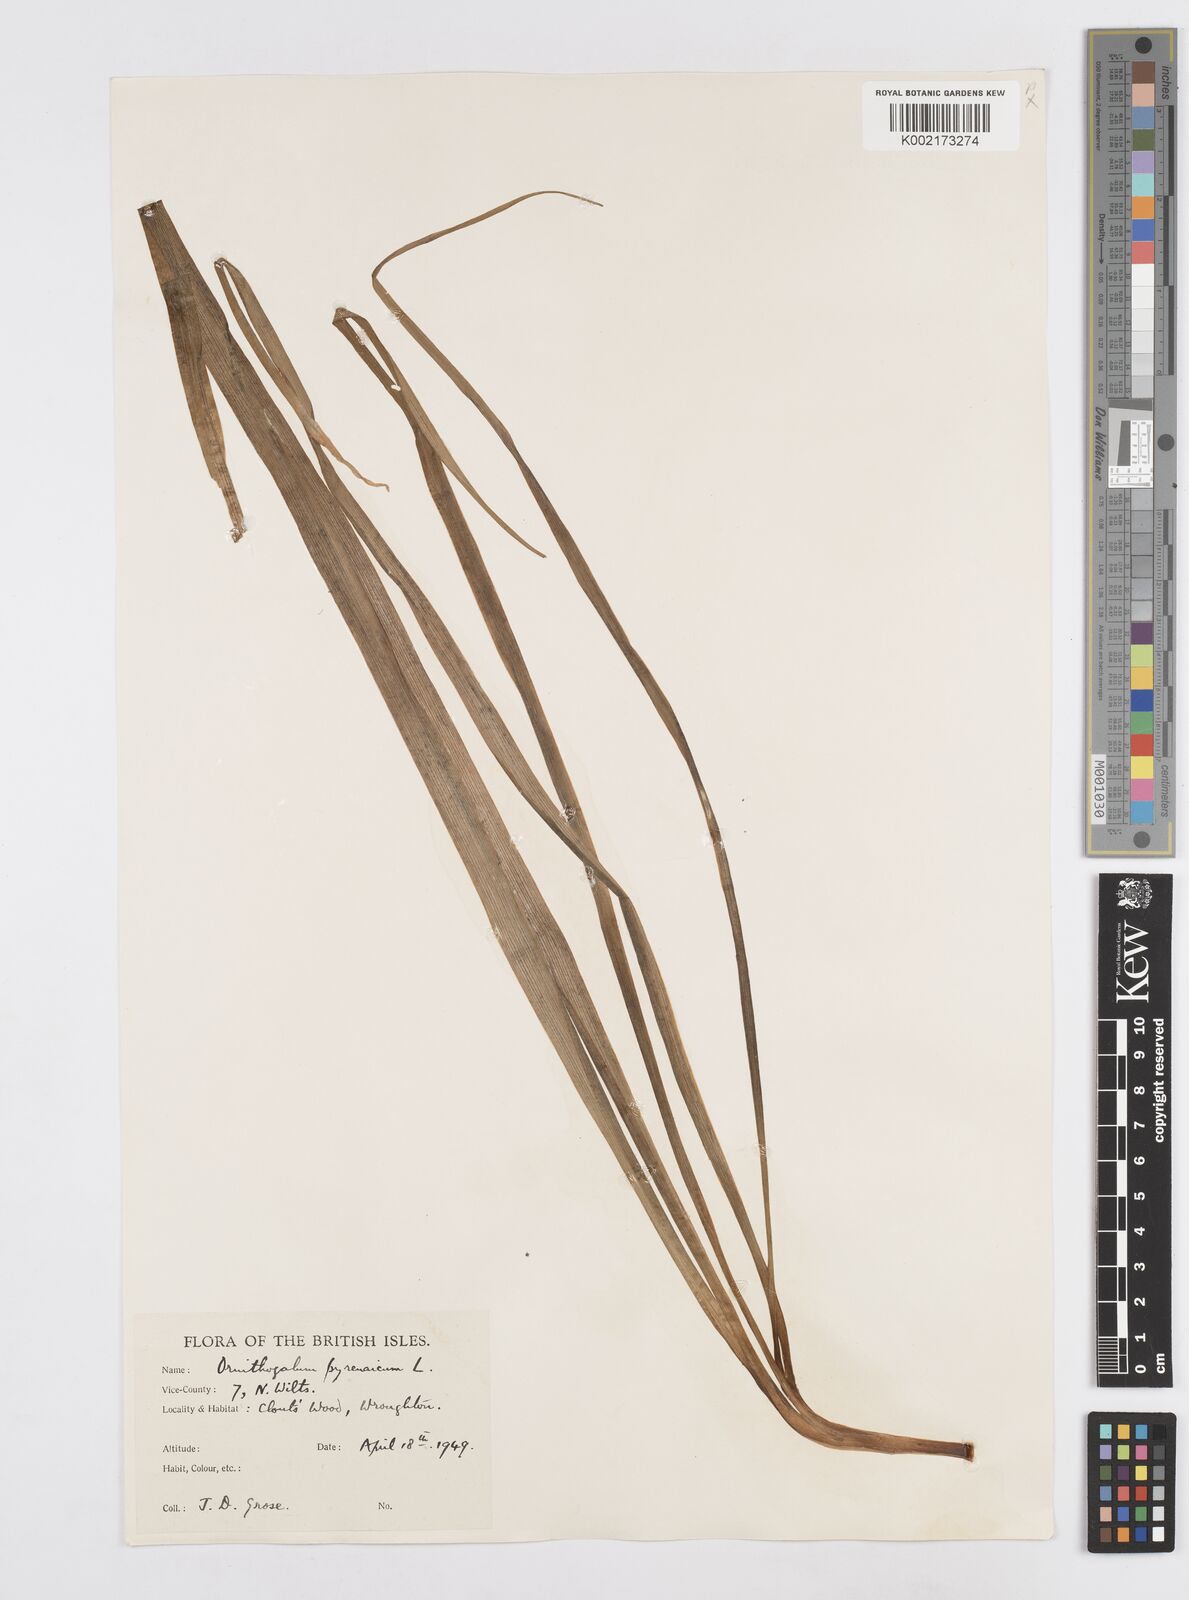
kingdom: Plantae
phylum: Tracheophyta
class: Liliopsida
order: Asparagales
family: Asparagaceae
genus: Ornithogalum
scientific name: Ornithogalum pyrenaicum
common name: Spiked star-of-bethlehem
